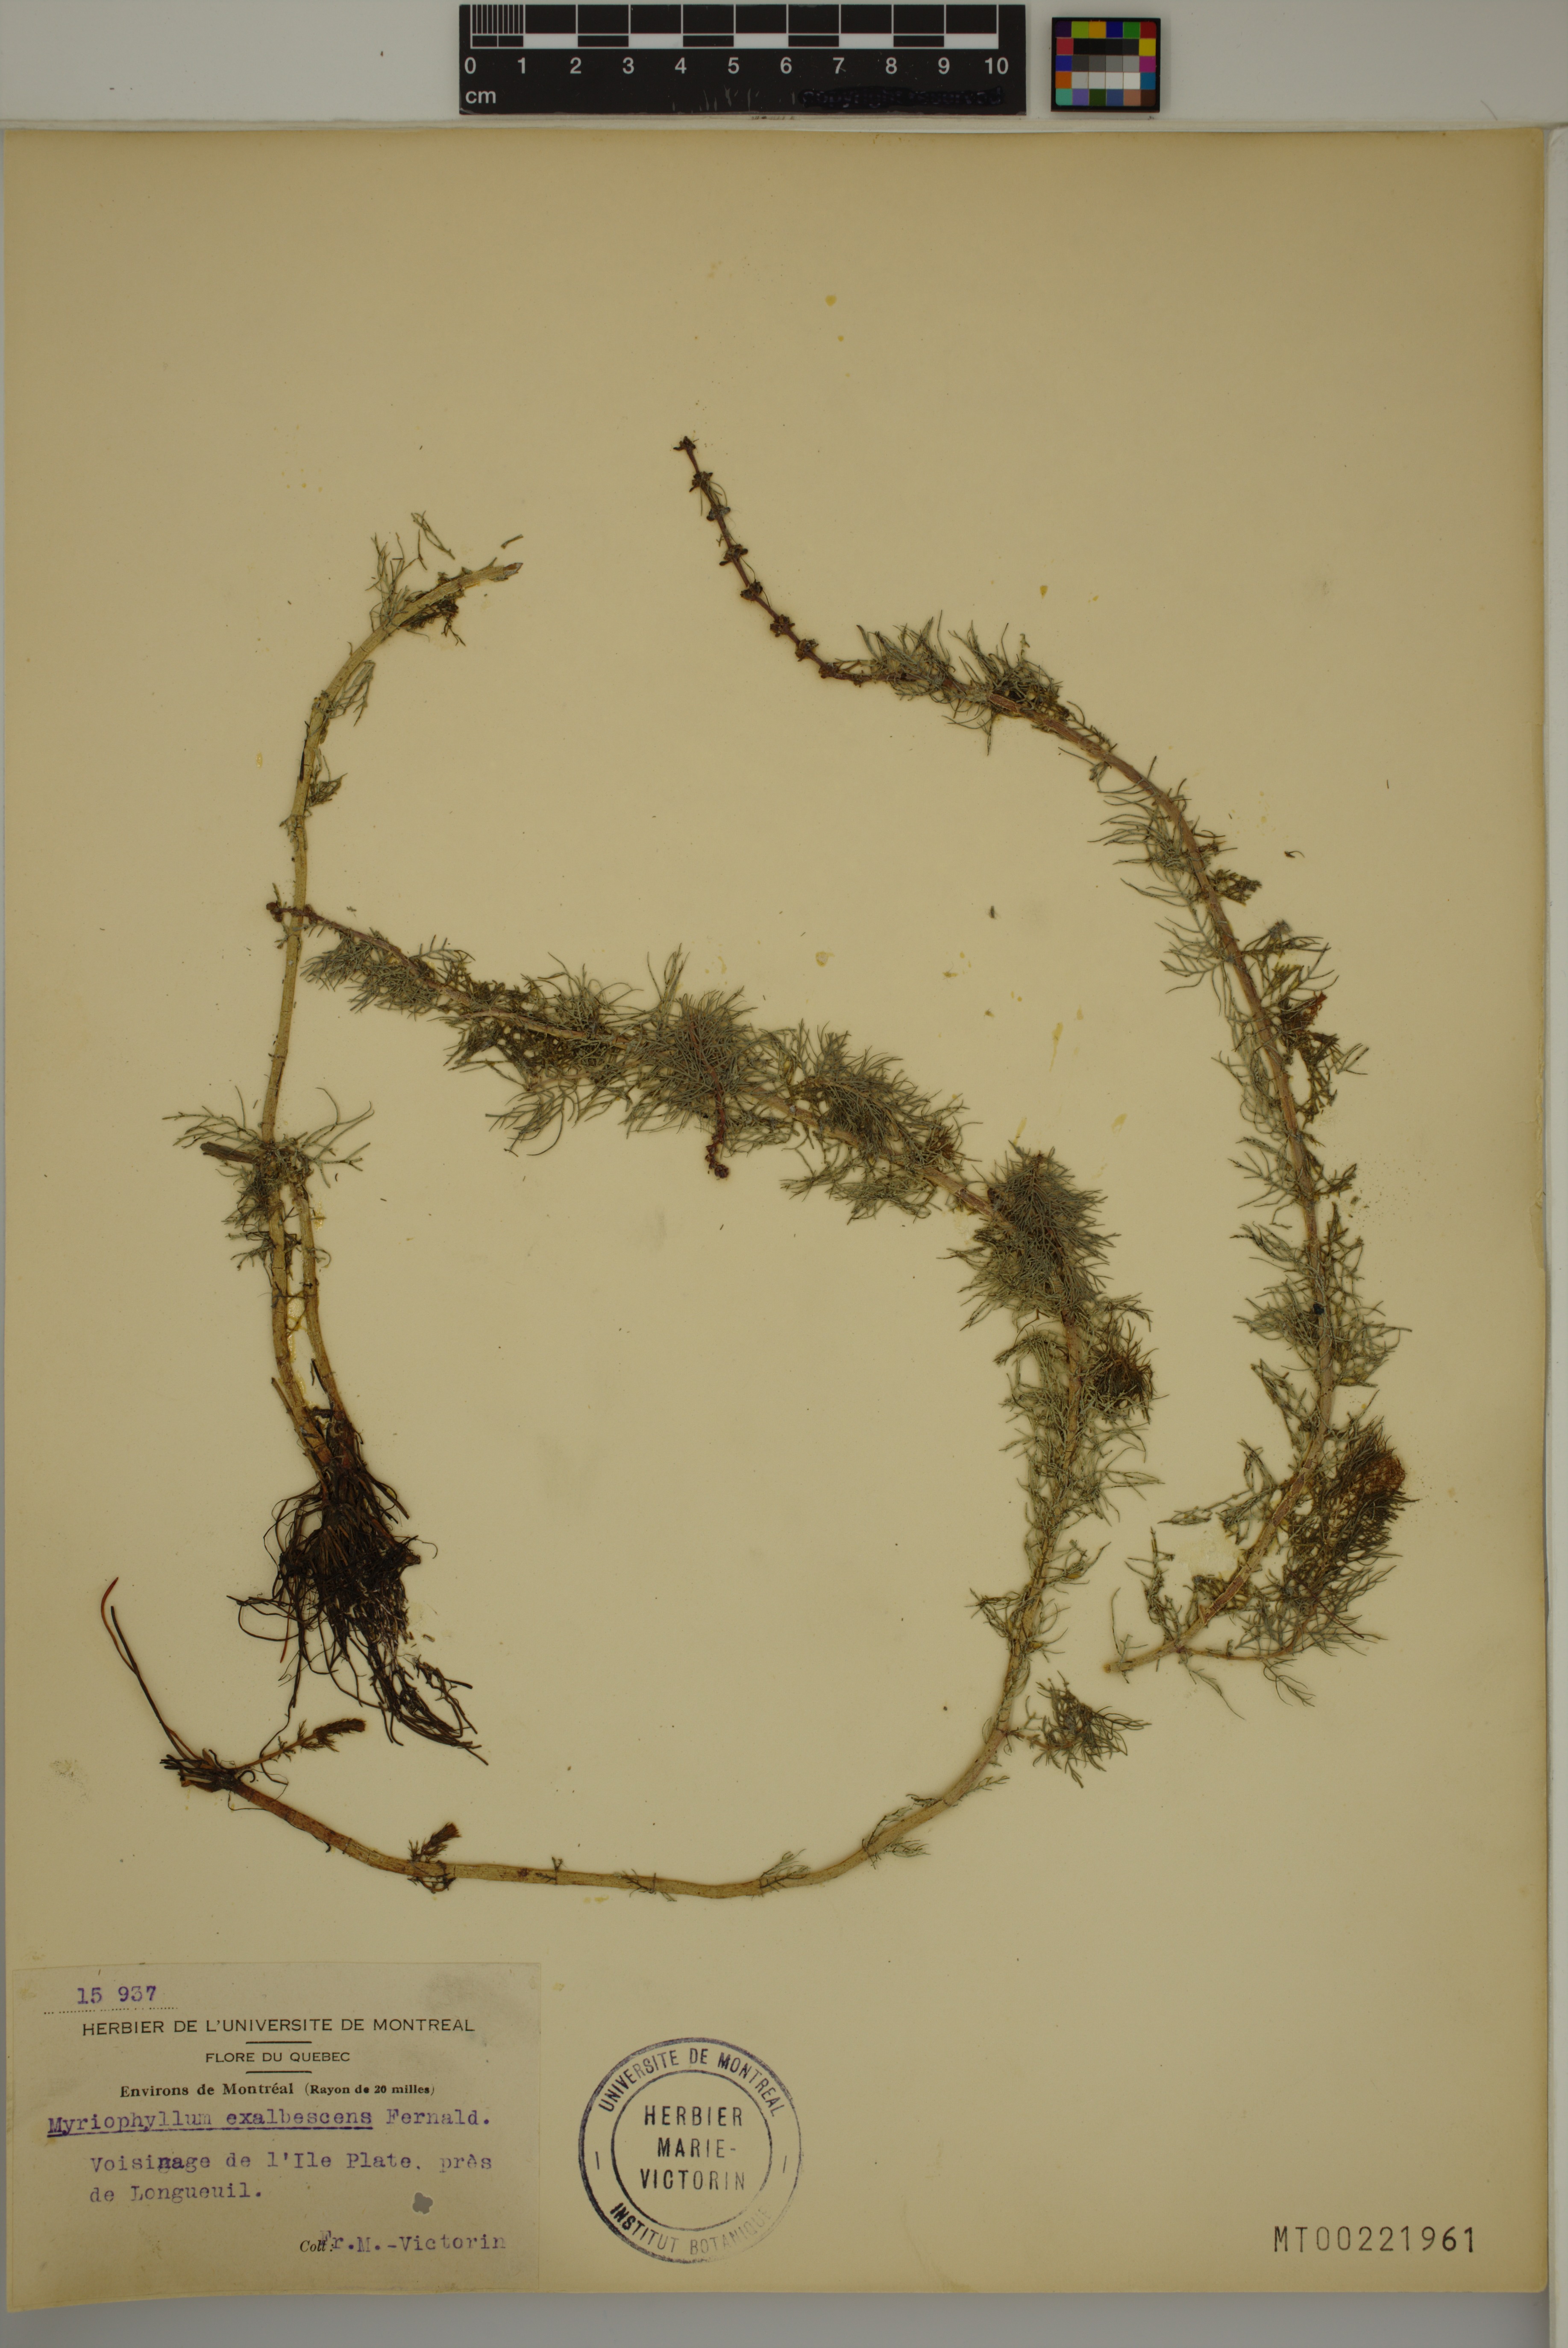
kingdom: Plantae
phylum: Tracheophyta
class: Magnoliopsida
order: Saxifragales
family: Haloragaceae
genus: Myriophyllum
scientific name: Myriophyllum sibiricum
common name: Siberian water-milfoil
